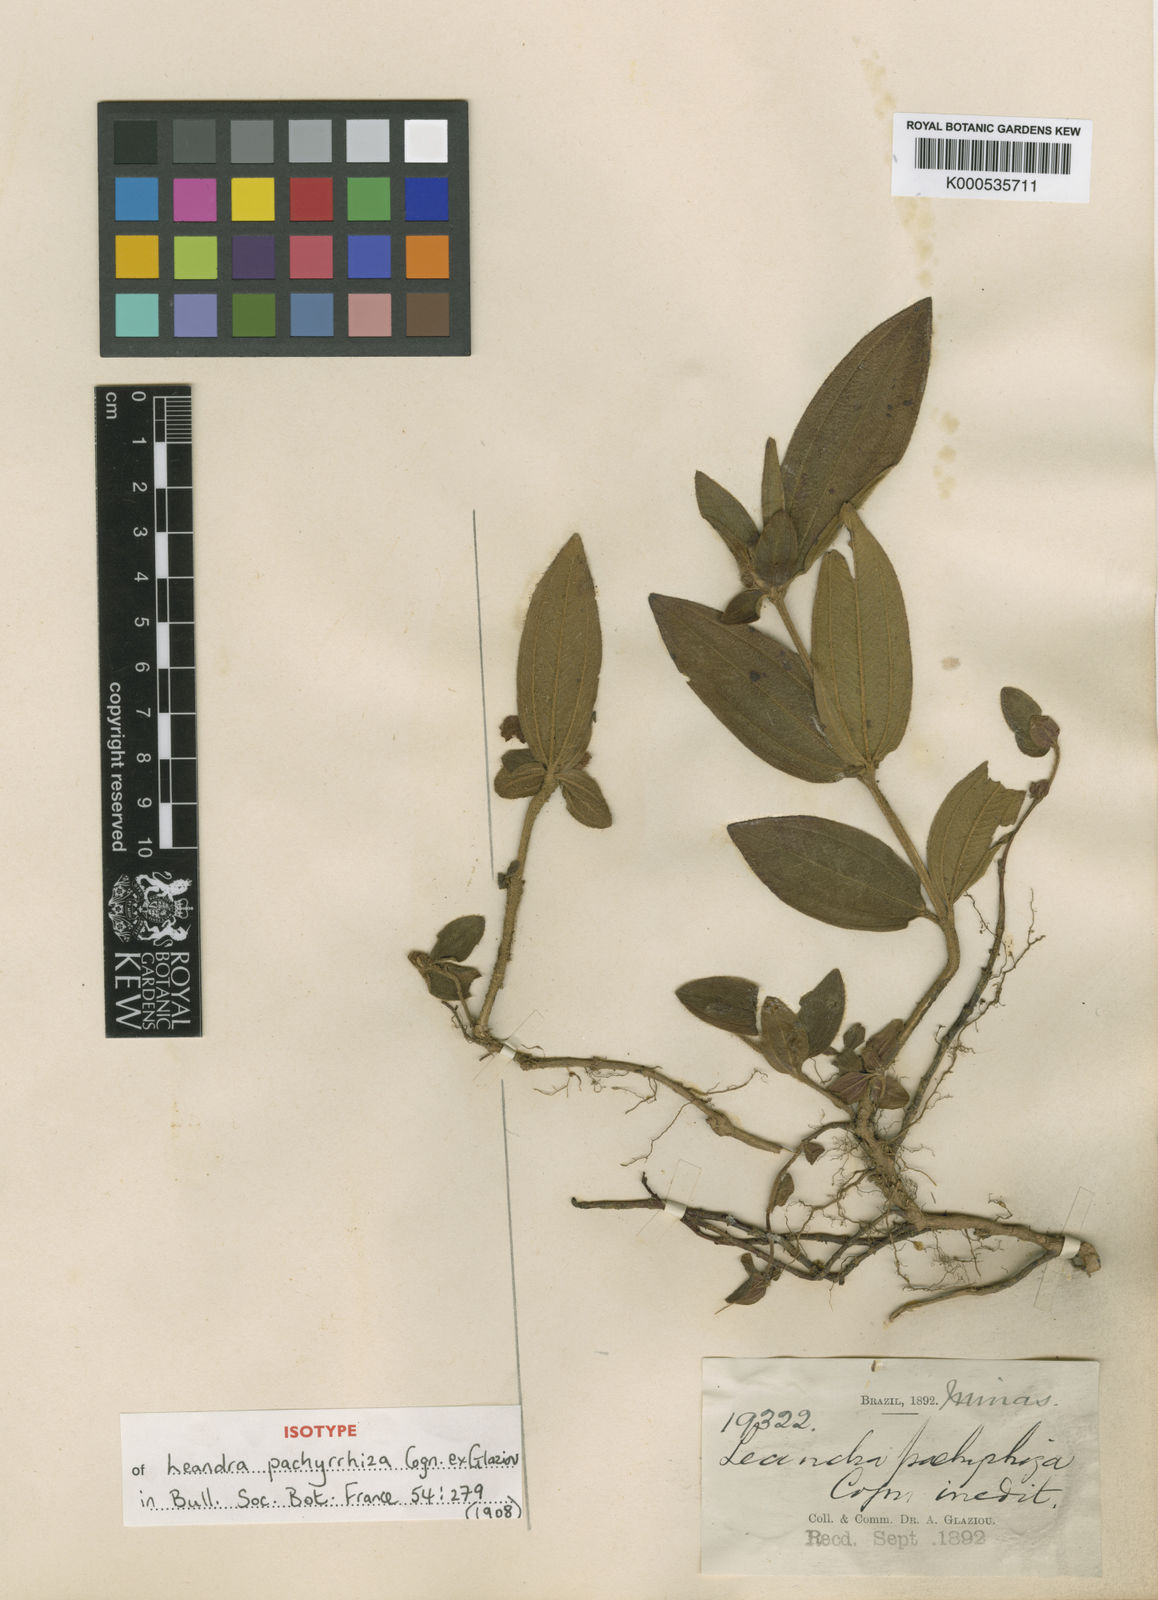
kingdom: Plantae
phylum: Tracheophyta
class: Magnoliopsida
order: Myrtales
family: Melastomataceae
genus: Miconia
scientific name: Miconia Leandra pachyrrhiza
